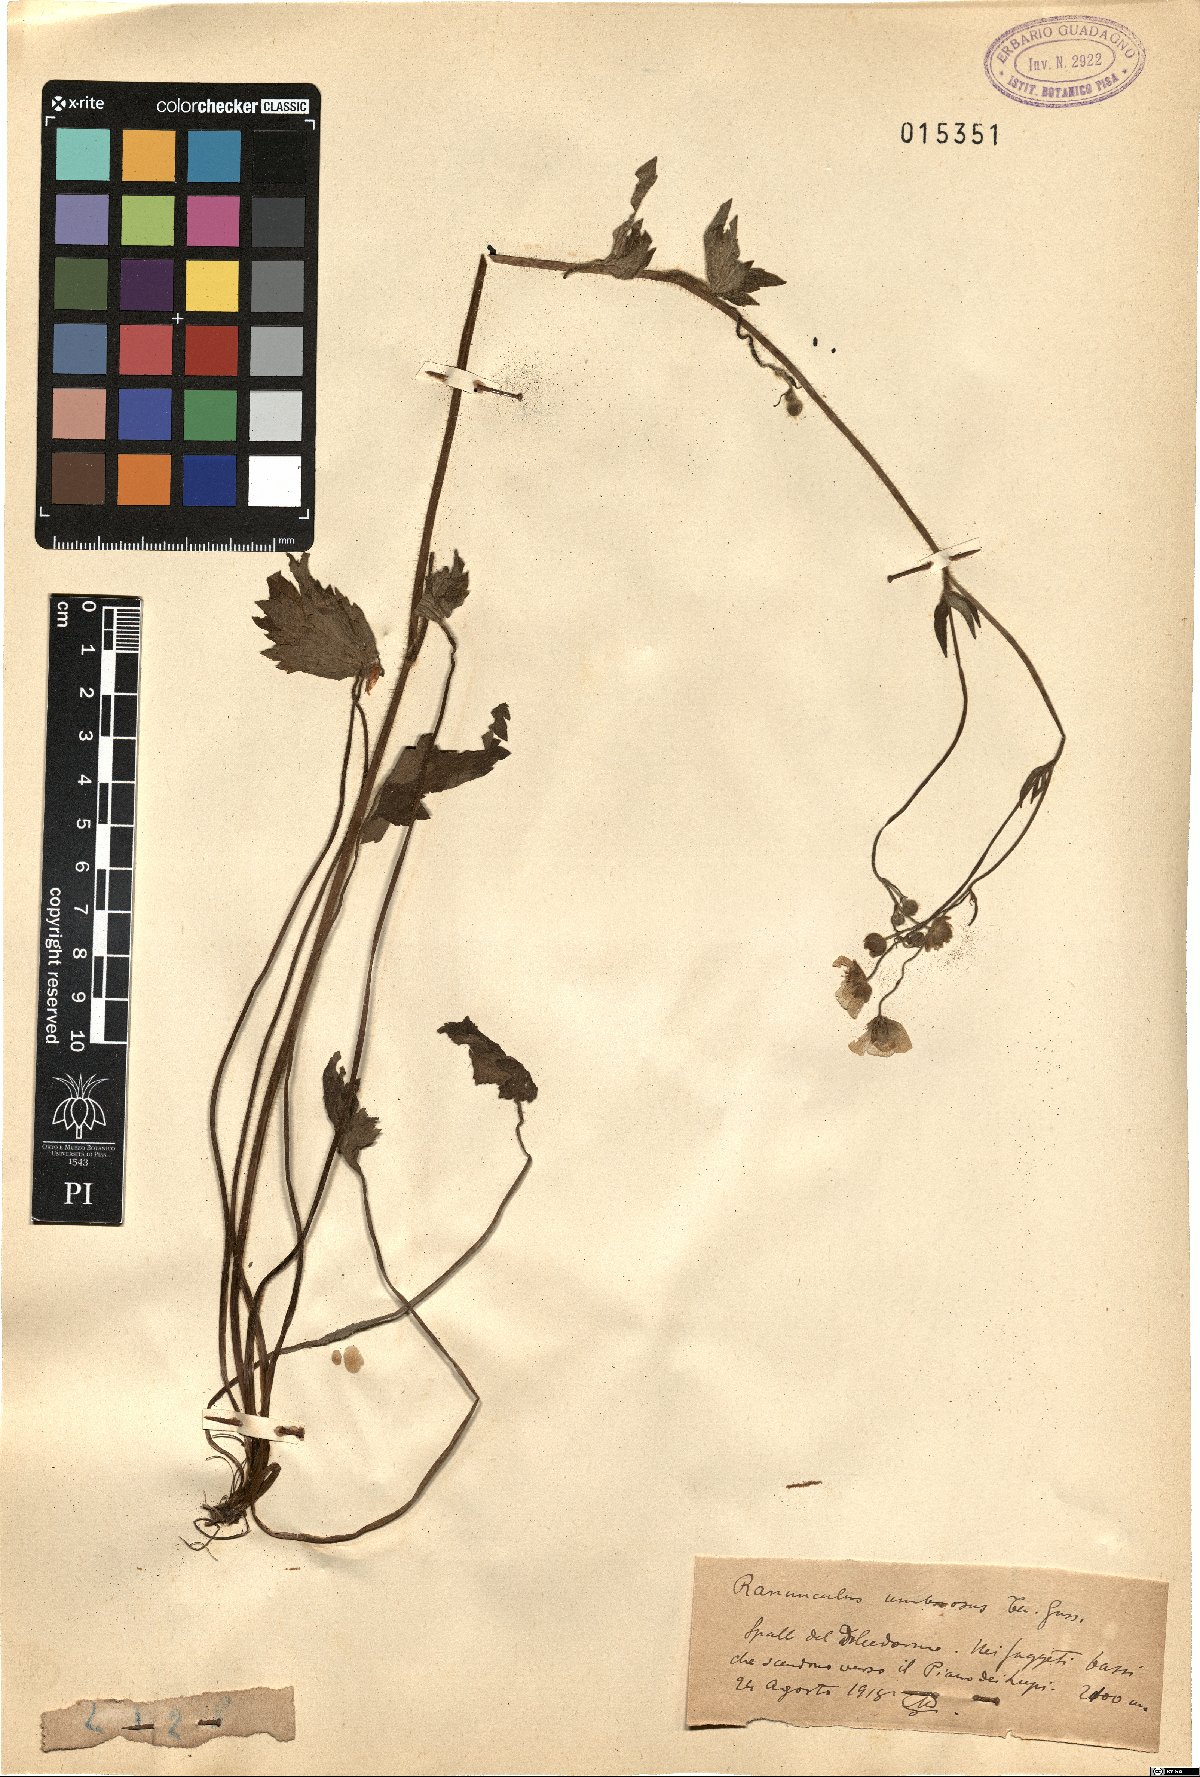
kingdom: Plantae
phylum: Tracheophyta
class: Magnoliopsida
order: Ranunculales
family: Ranunculaceae
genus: Ranunculus
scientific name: Ranunculus lanuginosus
